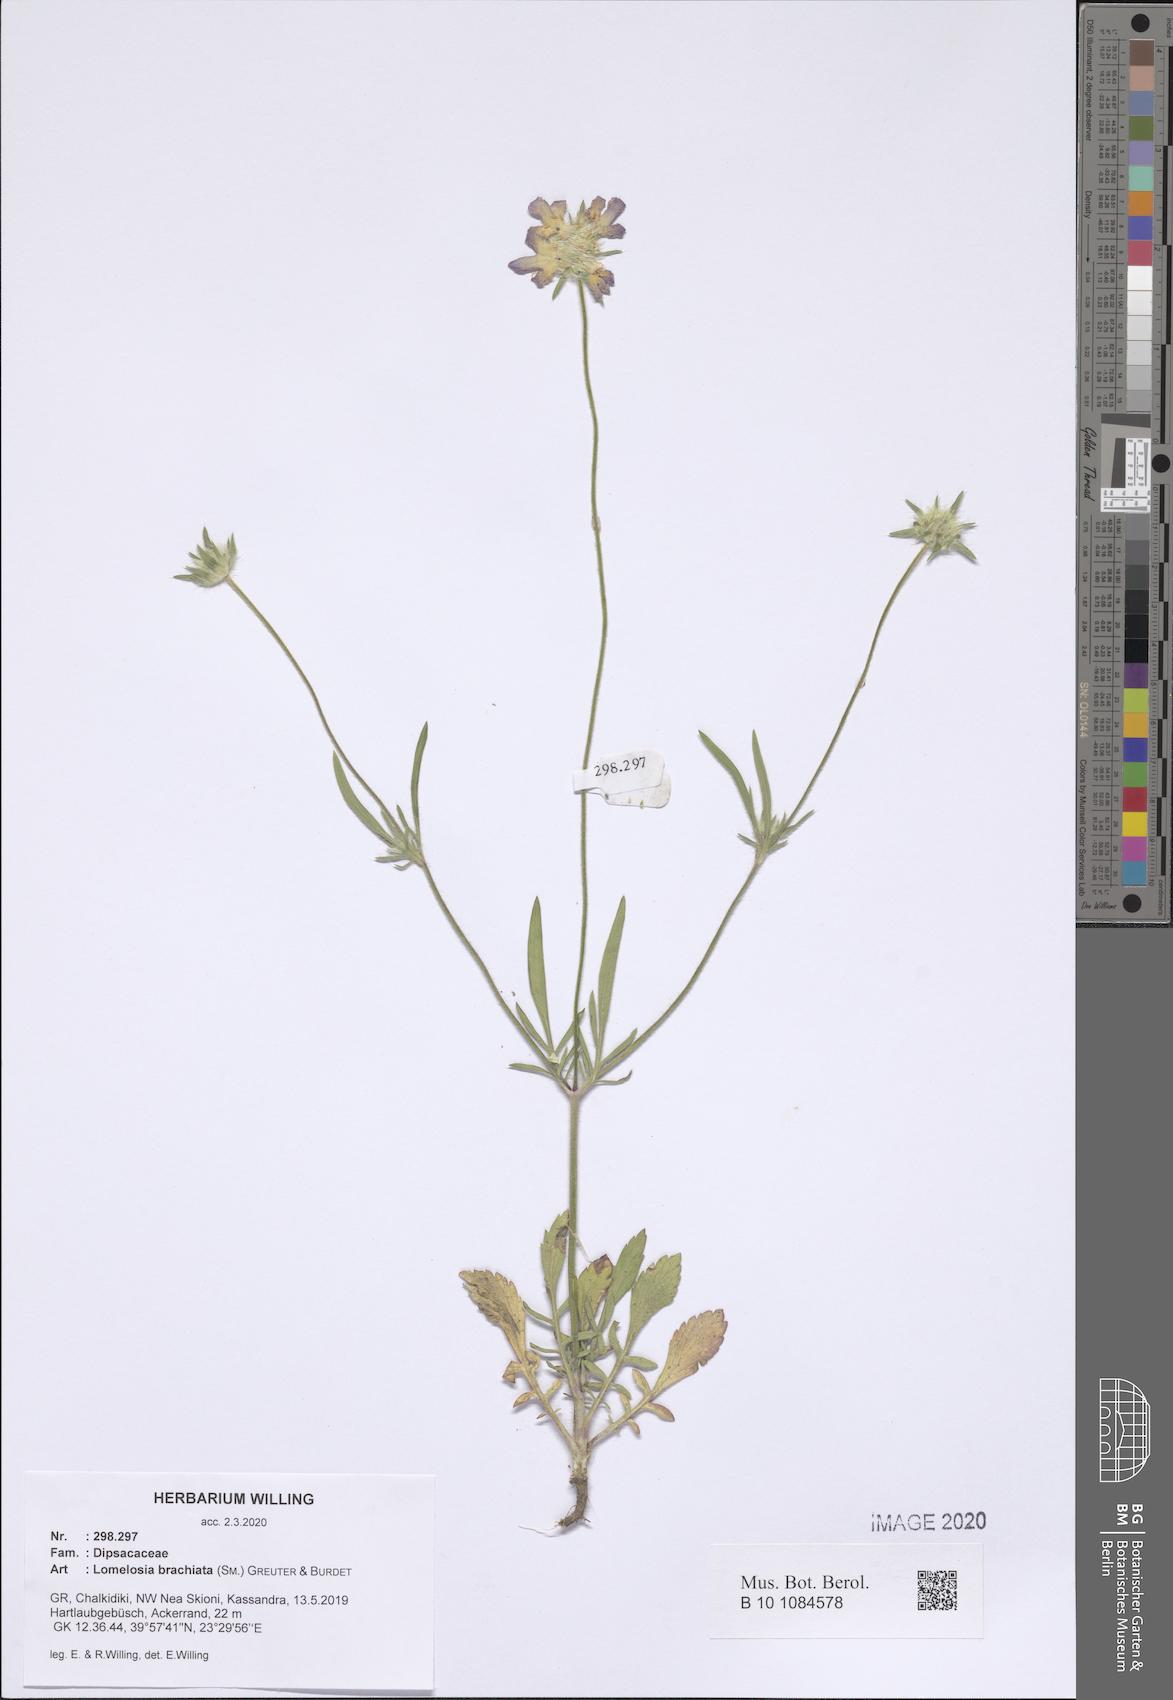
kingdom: Plantae
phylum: Tracheophyta
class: Magnoliopsida
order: Dipsacales
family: Caprifoliaceae
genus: Lomelosia
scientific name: Lomelosia brachiata
